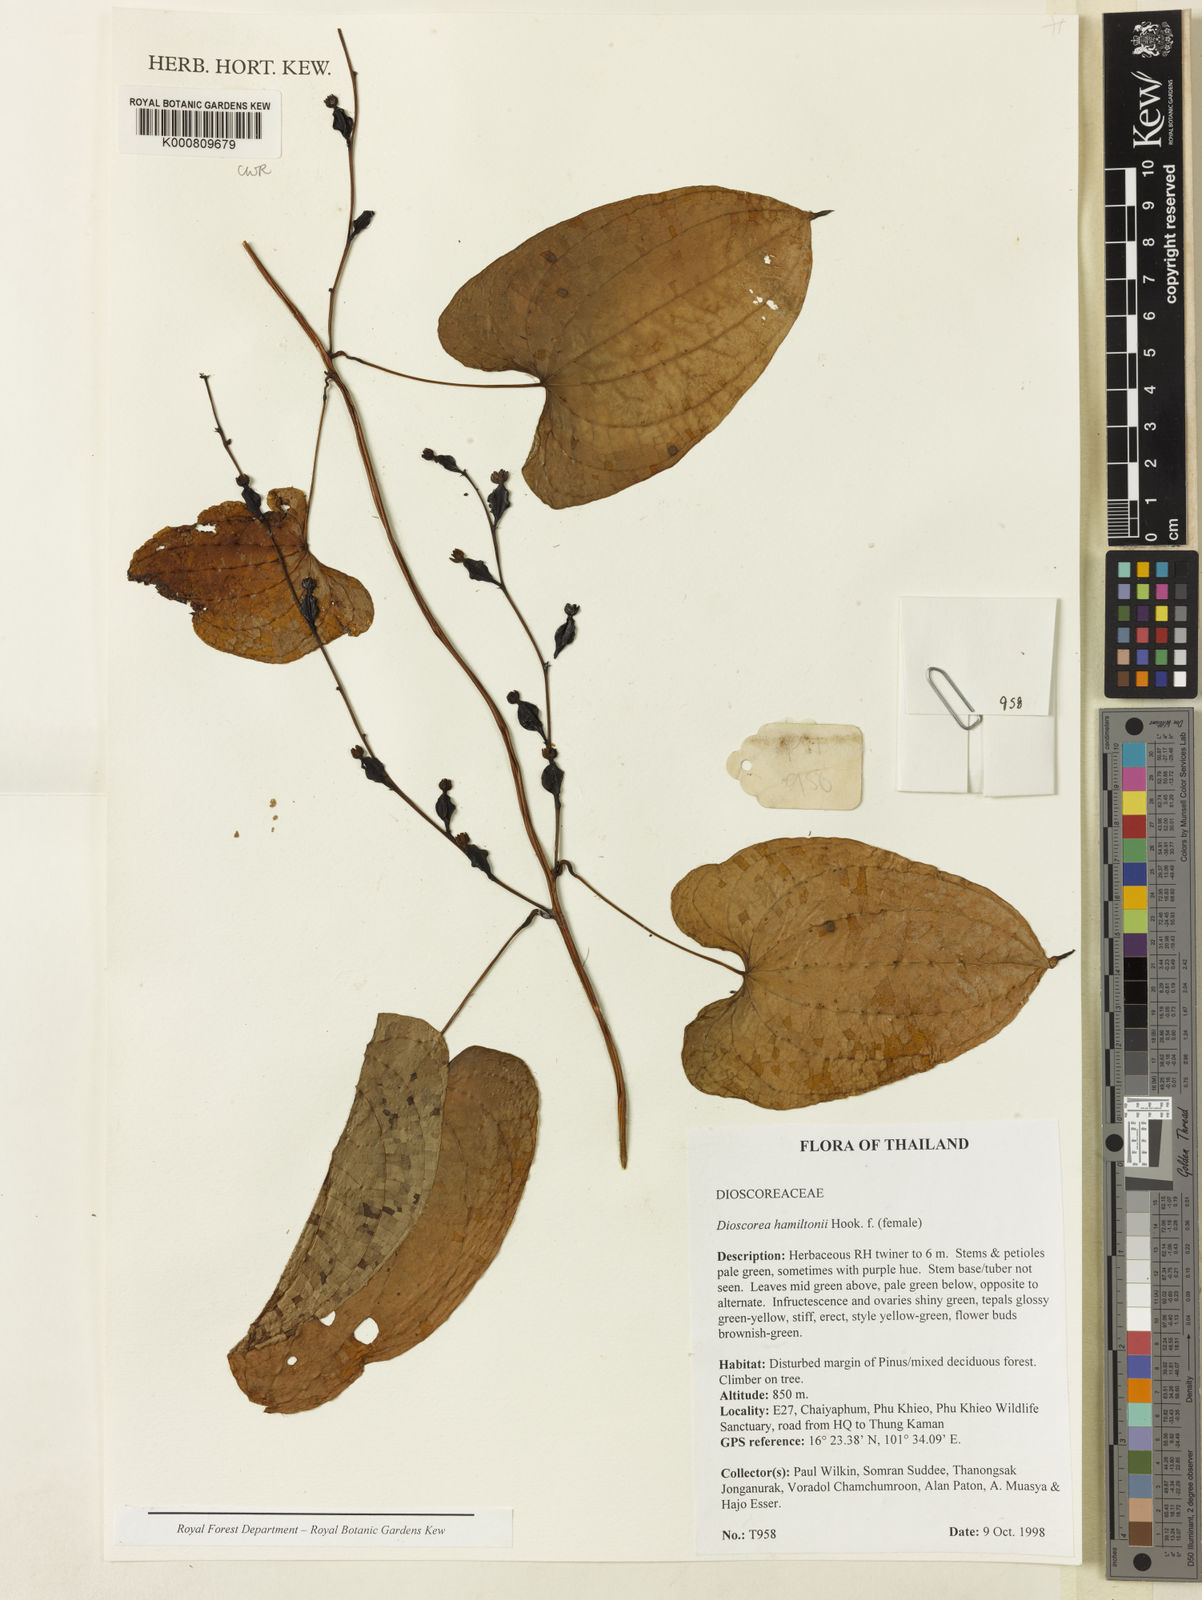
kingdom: Plantae
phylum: Tracheophyta
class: Liliopsida
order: Dioscoreales
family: Dioscoreaceae
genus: Dioscorea
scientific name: Dioscorea hamiltonii
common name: Mountain yam
